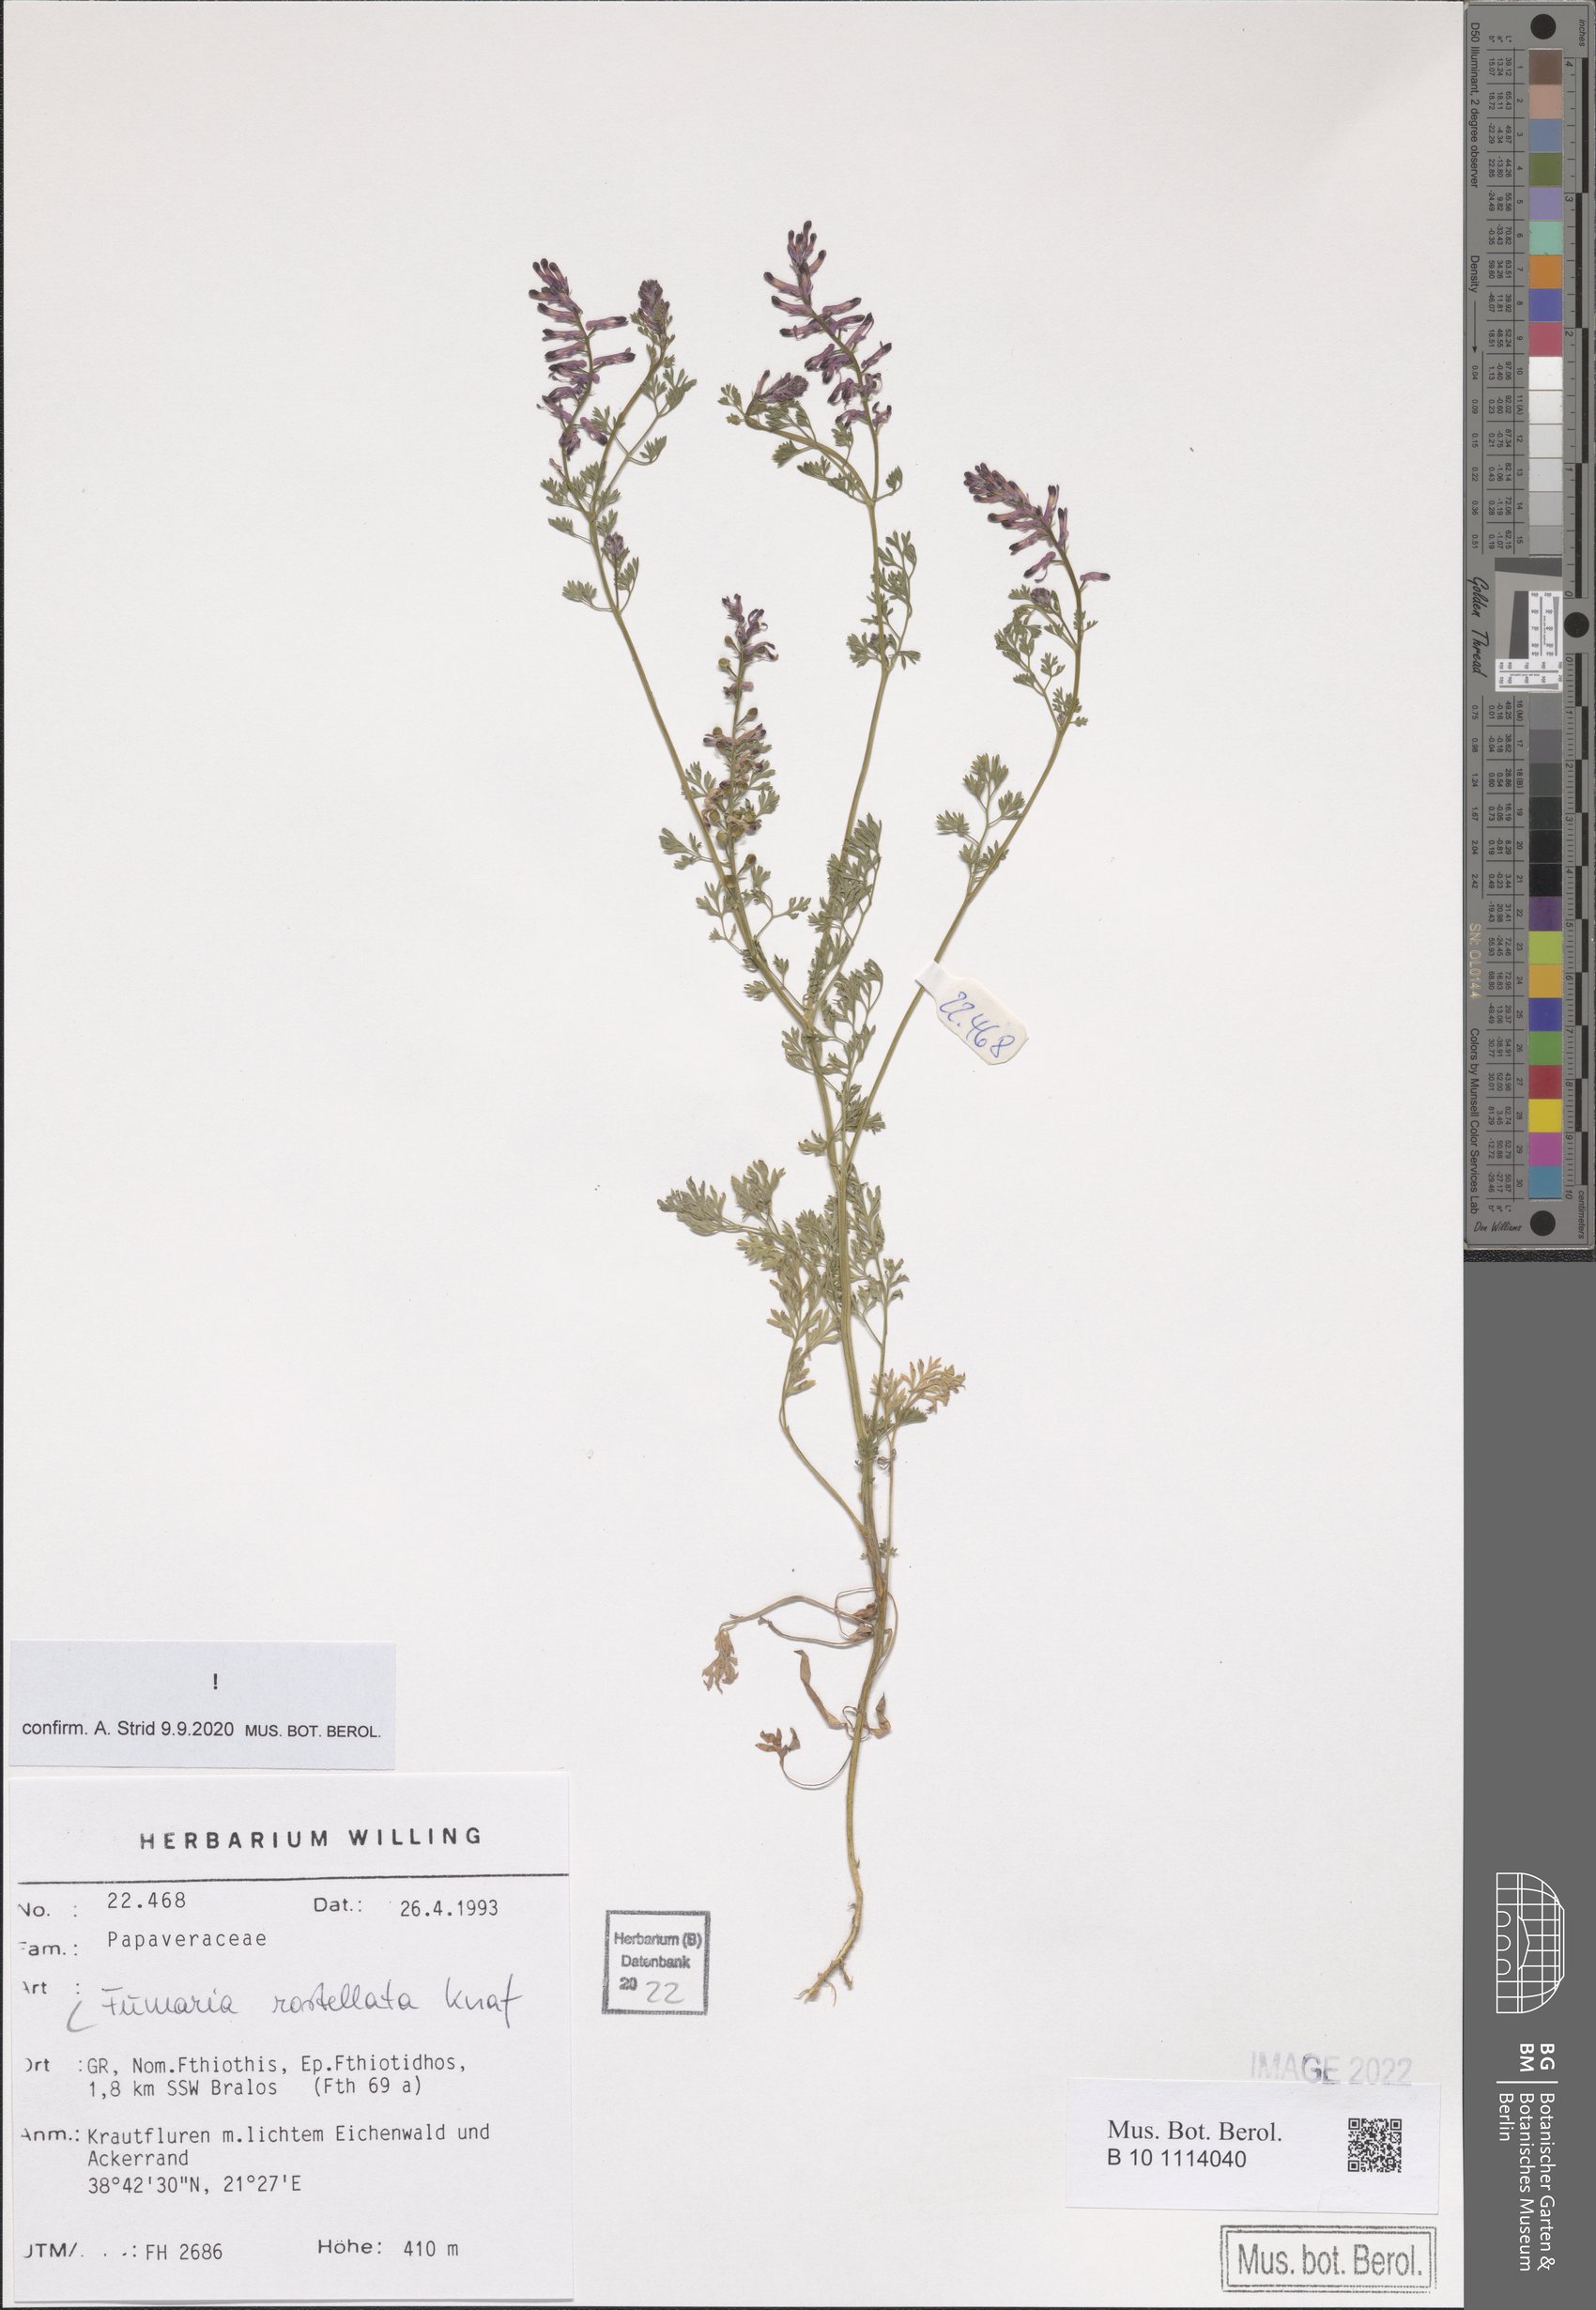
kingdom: Plantae
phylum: Tracheophyta
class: Magnoliopsida
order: Ranunculales
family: Papaveraceae
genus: Fumaria
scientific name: Fumaria rostellata
